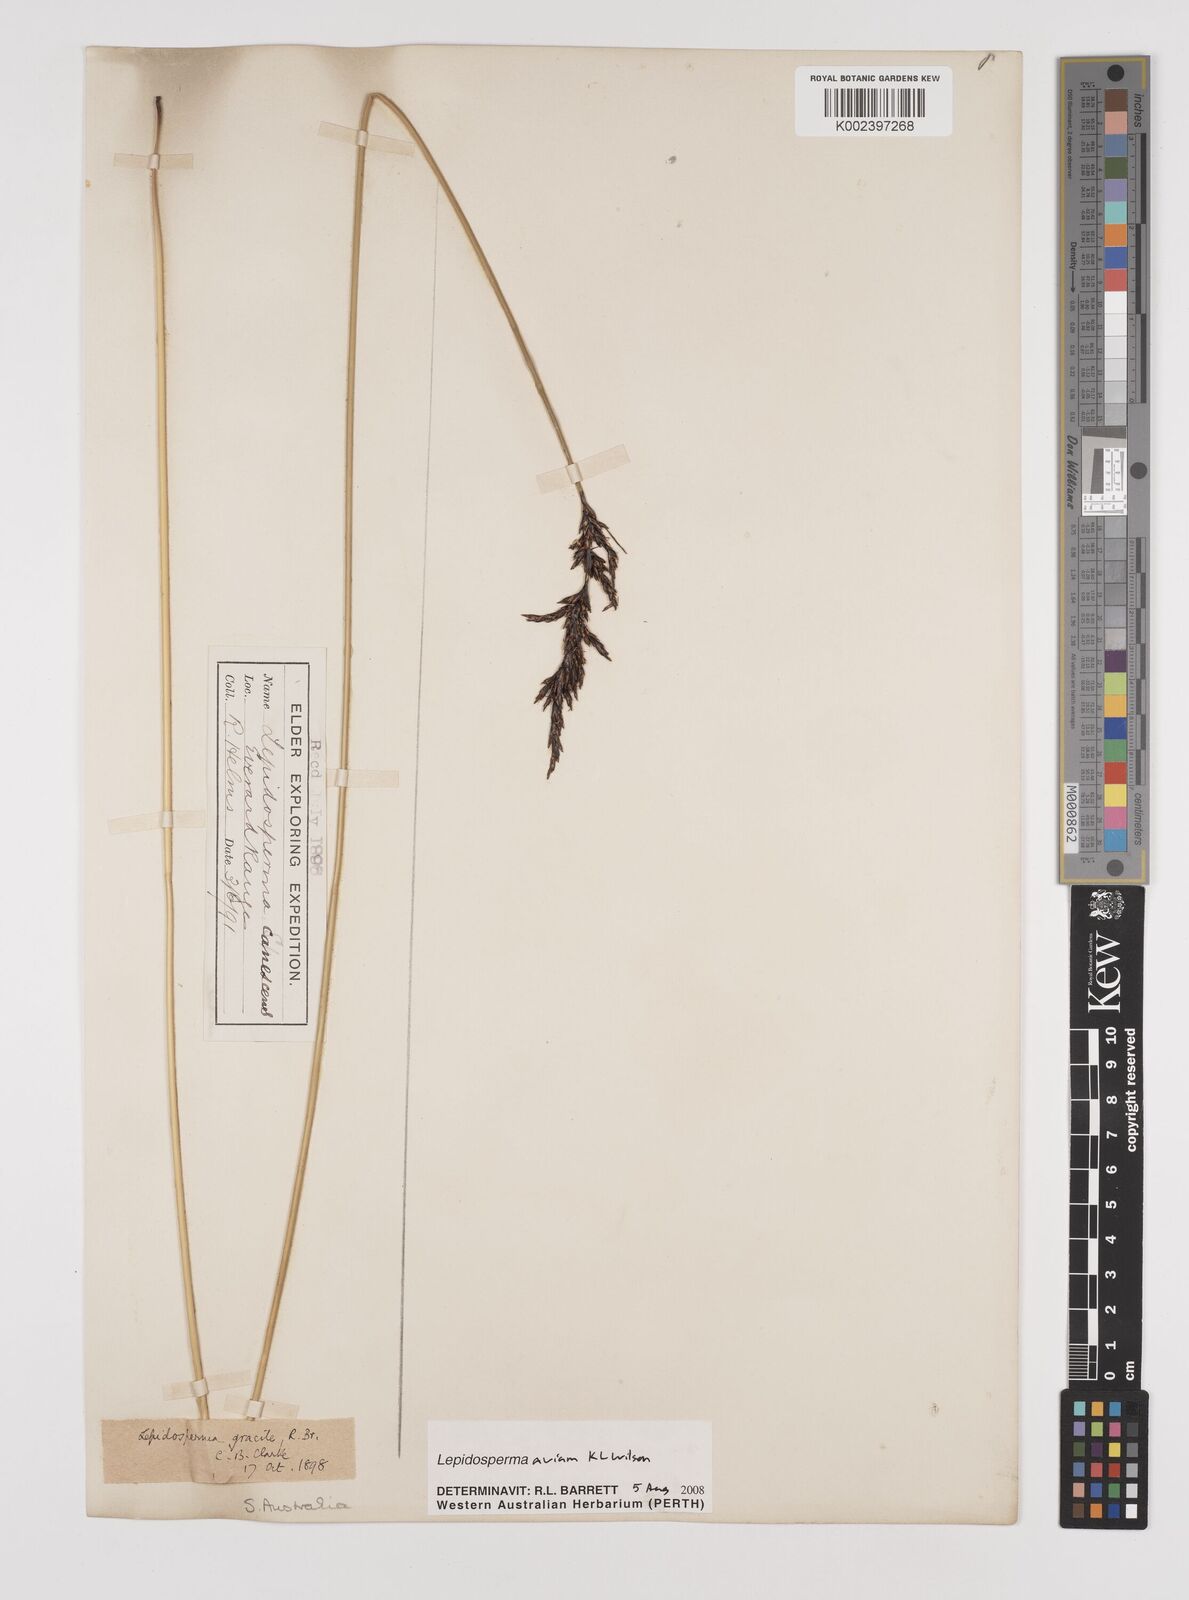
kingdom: Plantae
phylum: Tracheophyta
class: Liliopsida
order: Poales
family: Cyperaceae
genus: Lepidosperma
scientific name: Lepidosperma avium
